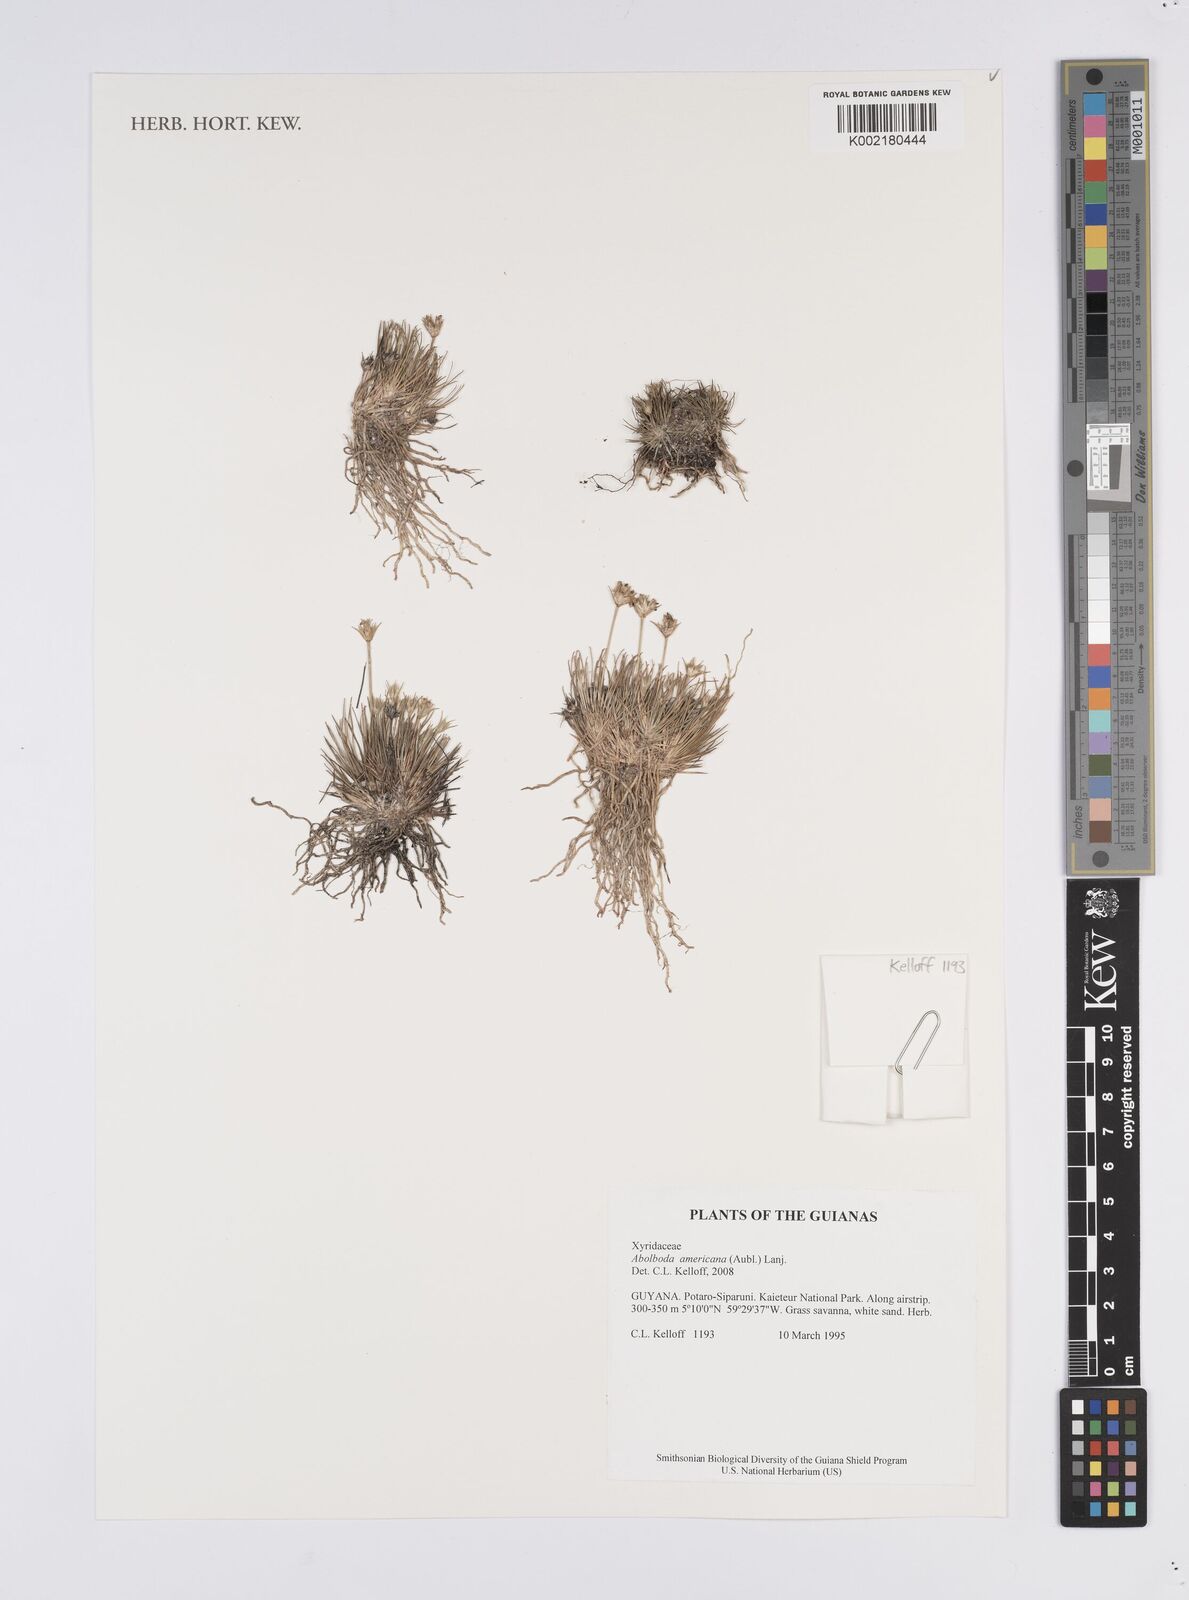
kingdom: Plantae
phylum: Tracheophyta
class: Liliopsida
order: Poales
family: Xyridaceae
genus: Abolboda
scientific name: Abolboda americana
